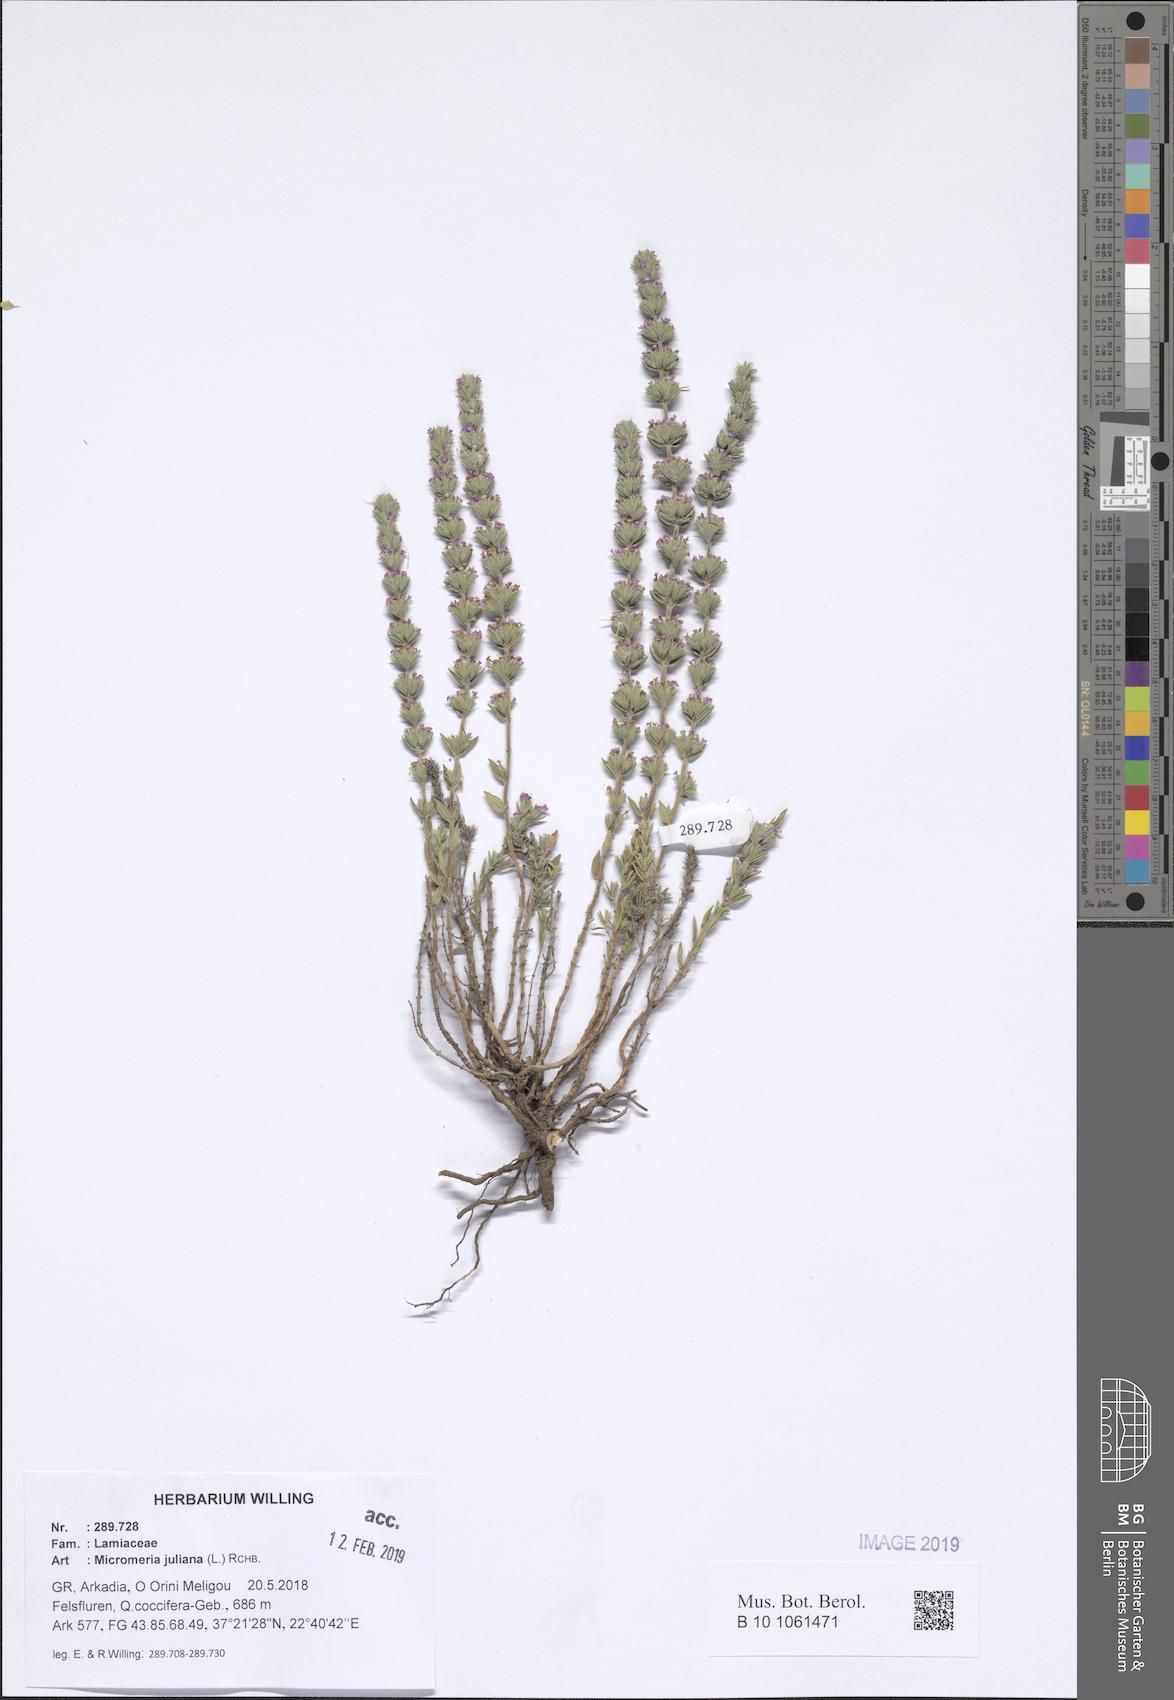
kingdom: Plantae
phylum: Tracheophyta
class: Magnoliopsida
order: Lamiales
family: Lamiaceae
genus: Micromeria
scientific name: Micromeria juliana
